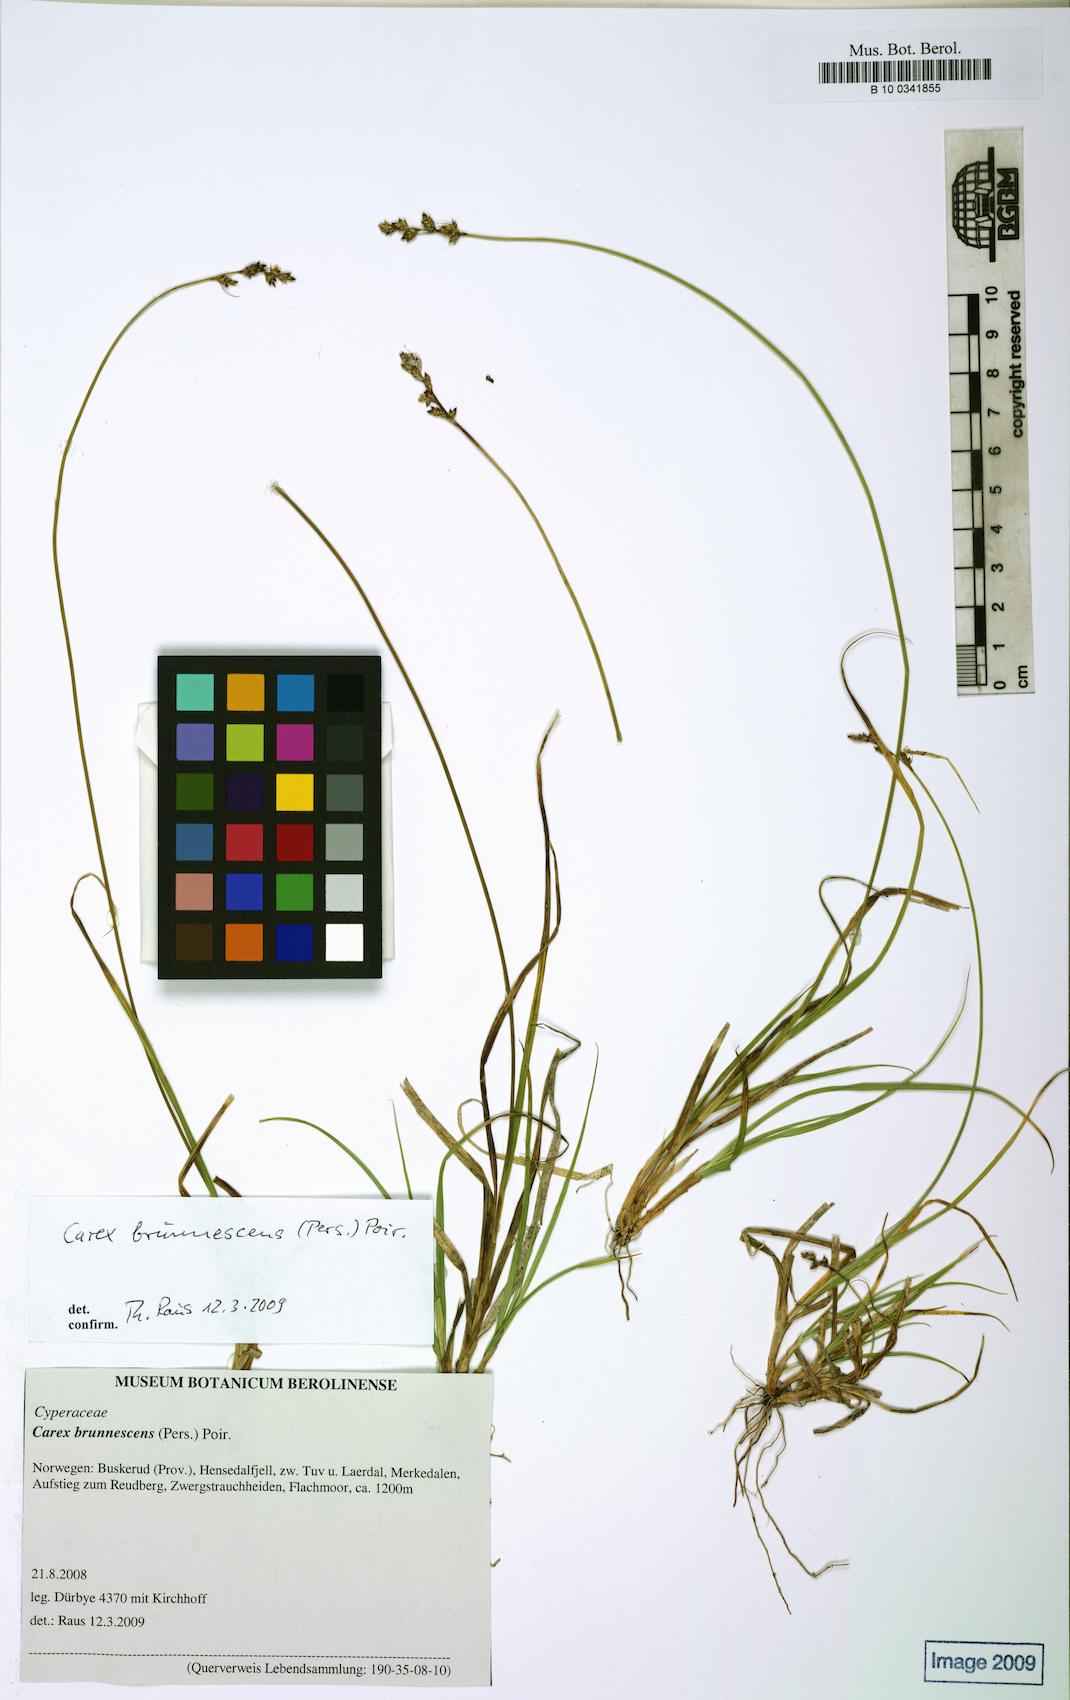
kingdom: Plantae
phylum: Tracheophyta
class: Liliopsida
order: Poales
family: Cyperaceae
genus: Carex
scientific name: Carex brunnescens
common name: Brown sedge
